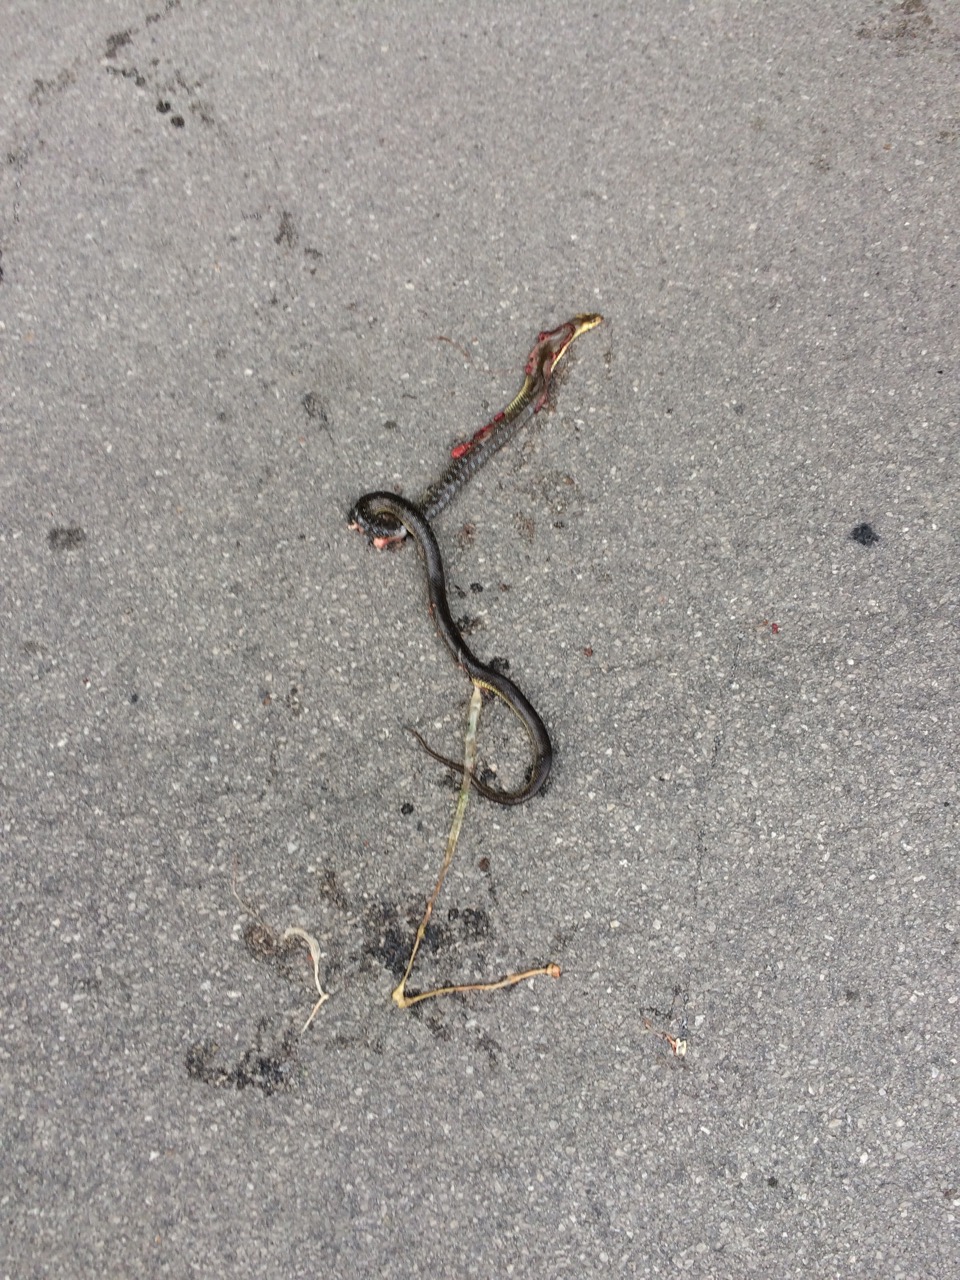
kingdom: Animalia
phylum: Chordata
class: Squamata
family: Colubridae
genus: Zamenis
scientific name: Zamenis longissimus
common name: Aesculapean snake
